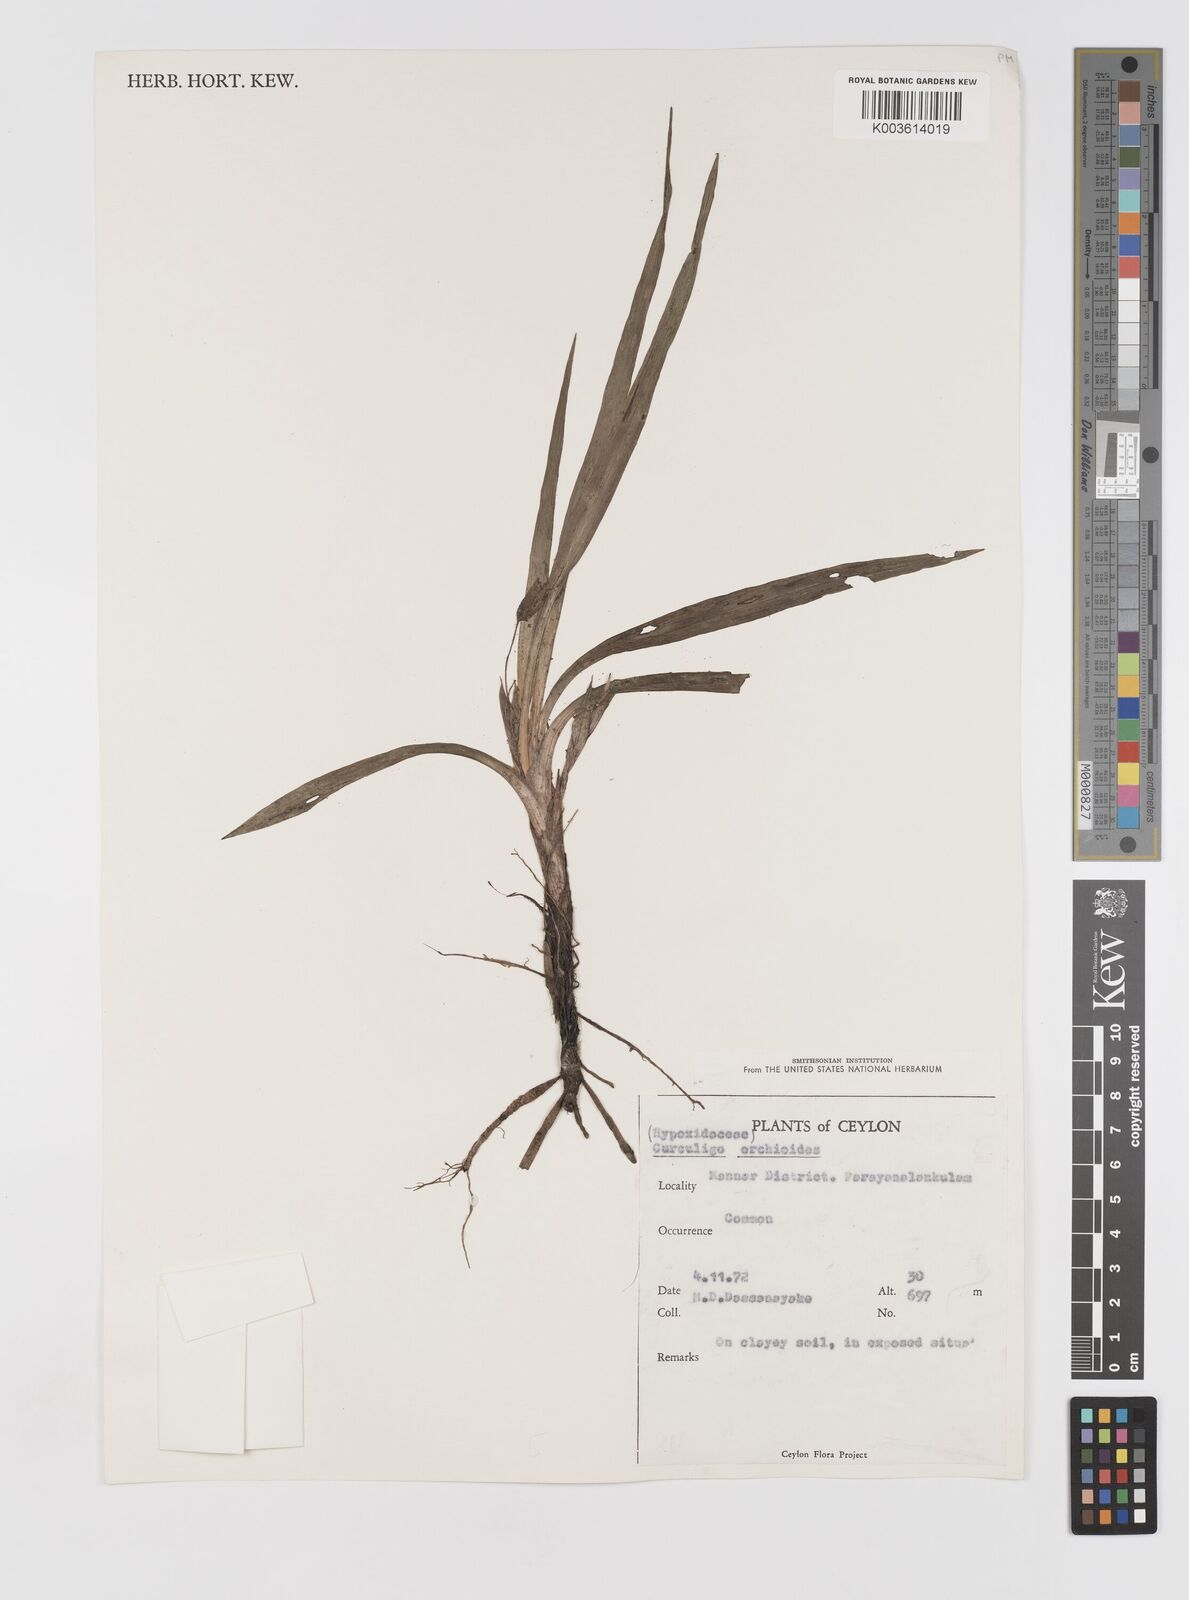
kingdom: Plantae
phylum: Tracheophyta
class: Liliopsida
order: Asparagales
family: Hypoxidaceae
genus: Curculigo
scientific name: Curculigo orchioides
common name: Golden eye-grass
